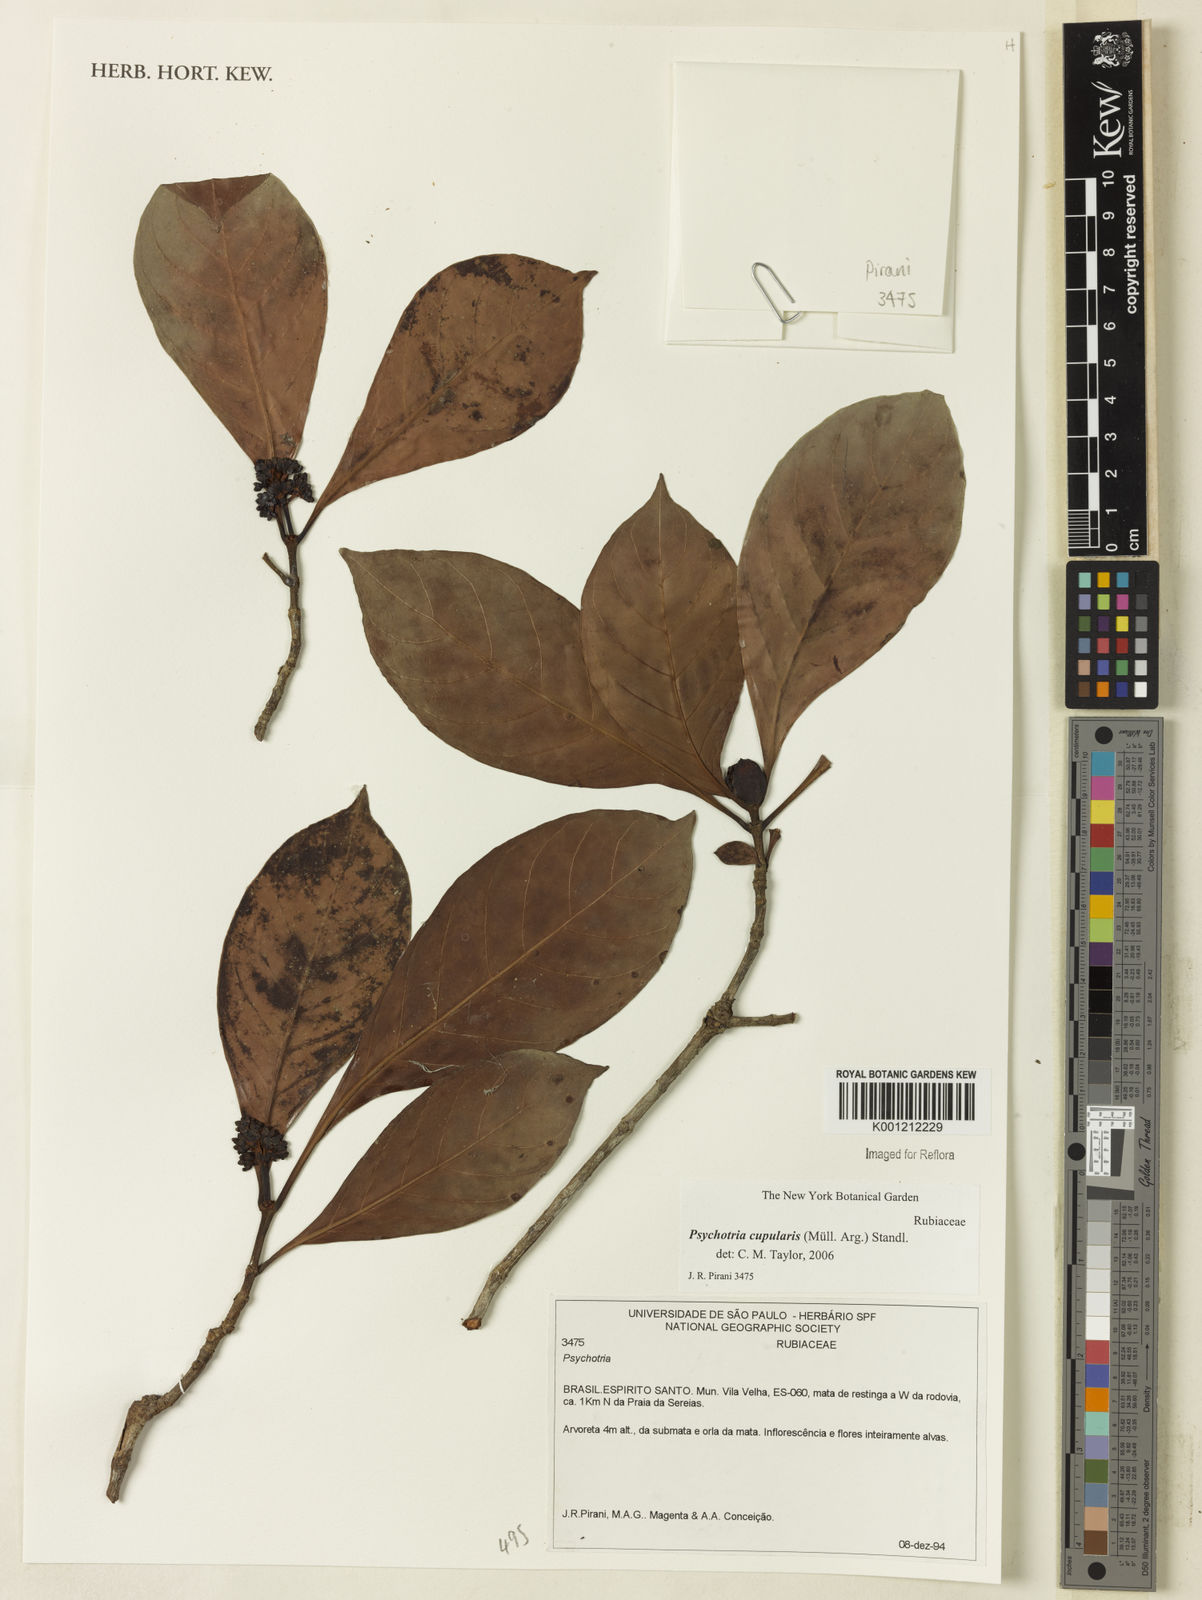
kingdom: Plantae
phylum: Tracheophyta
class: Magnoliopsida
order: Gentianales
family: Rubiaceae
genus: Psychotria
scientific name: Psychotria
